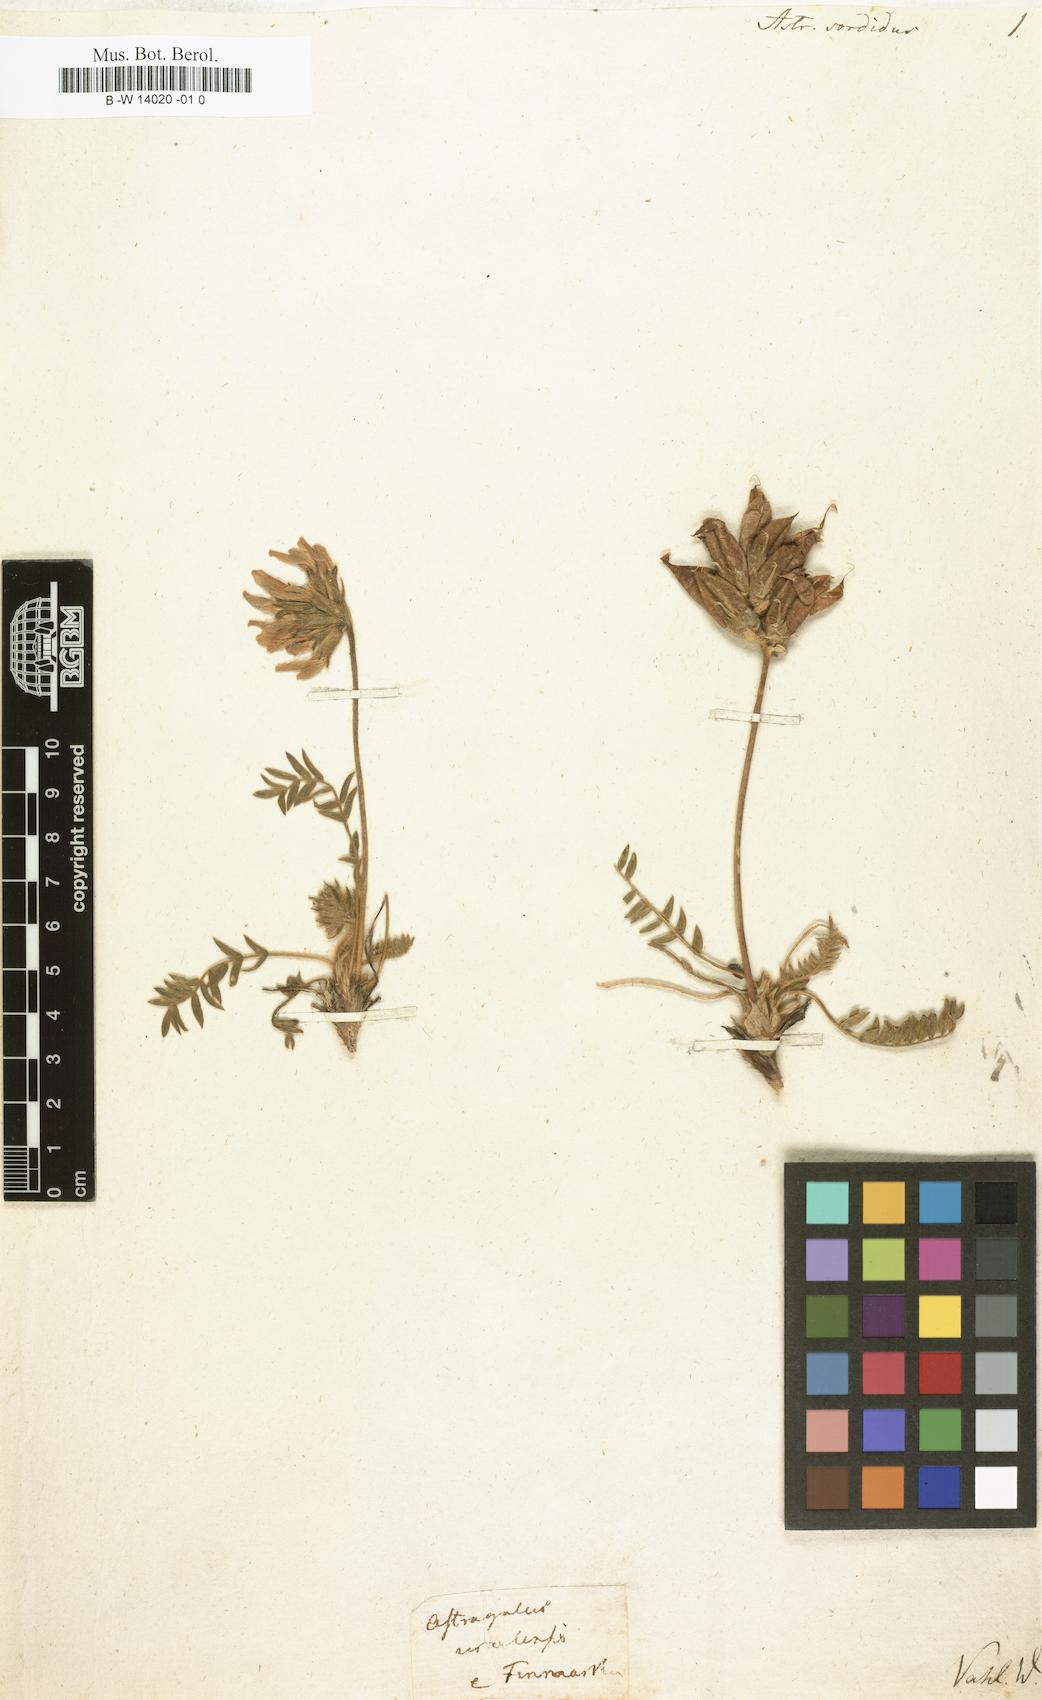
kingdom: Plantae
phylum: Tracheophyta
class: Magnoliopsida
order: Fabales
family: Fabaceae
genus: Oxytropis
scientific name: Oxytropis sordida
